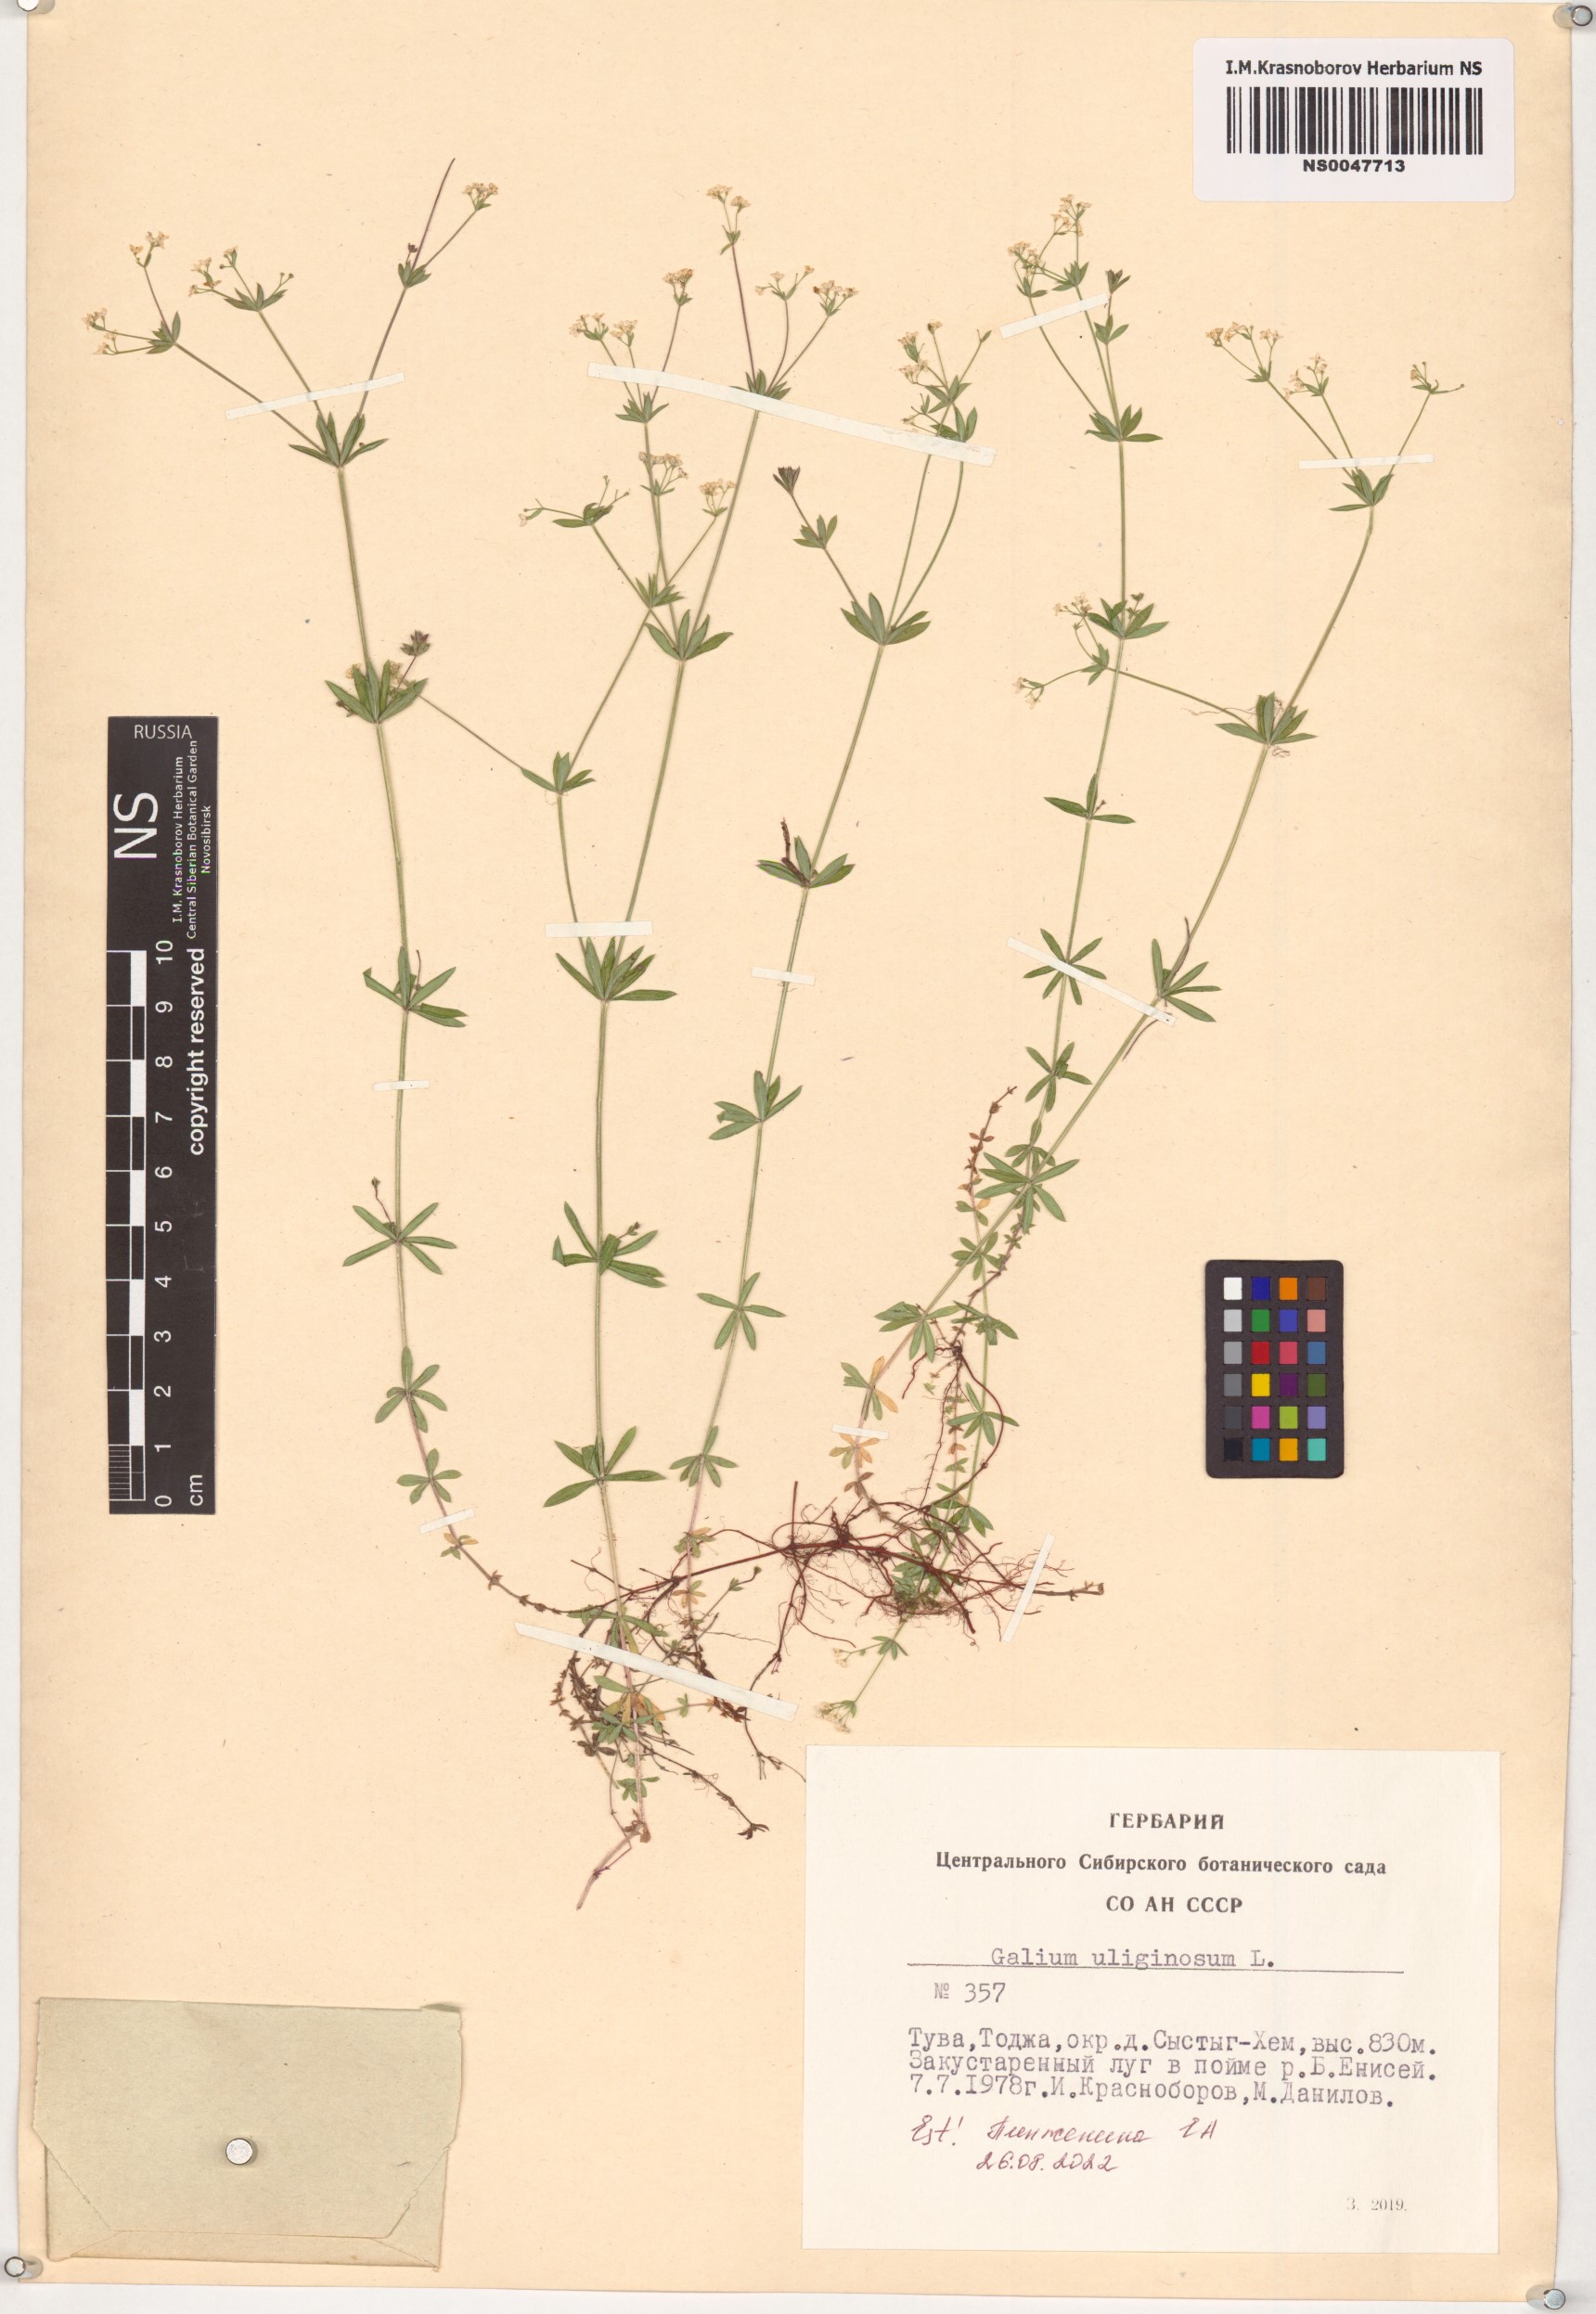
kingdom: Plantae
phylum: Tracheophyta
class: Magnoliopsida
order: Gentianales
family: Rubiaceae
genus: Galium
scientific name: Galium uliginosum
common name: Fen bedstraw
